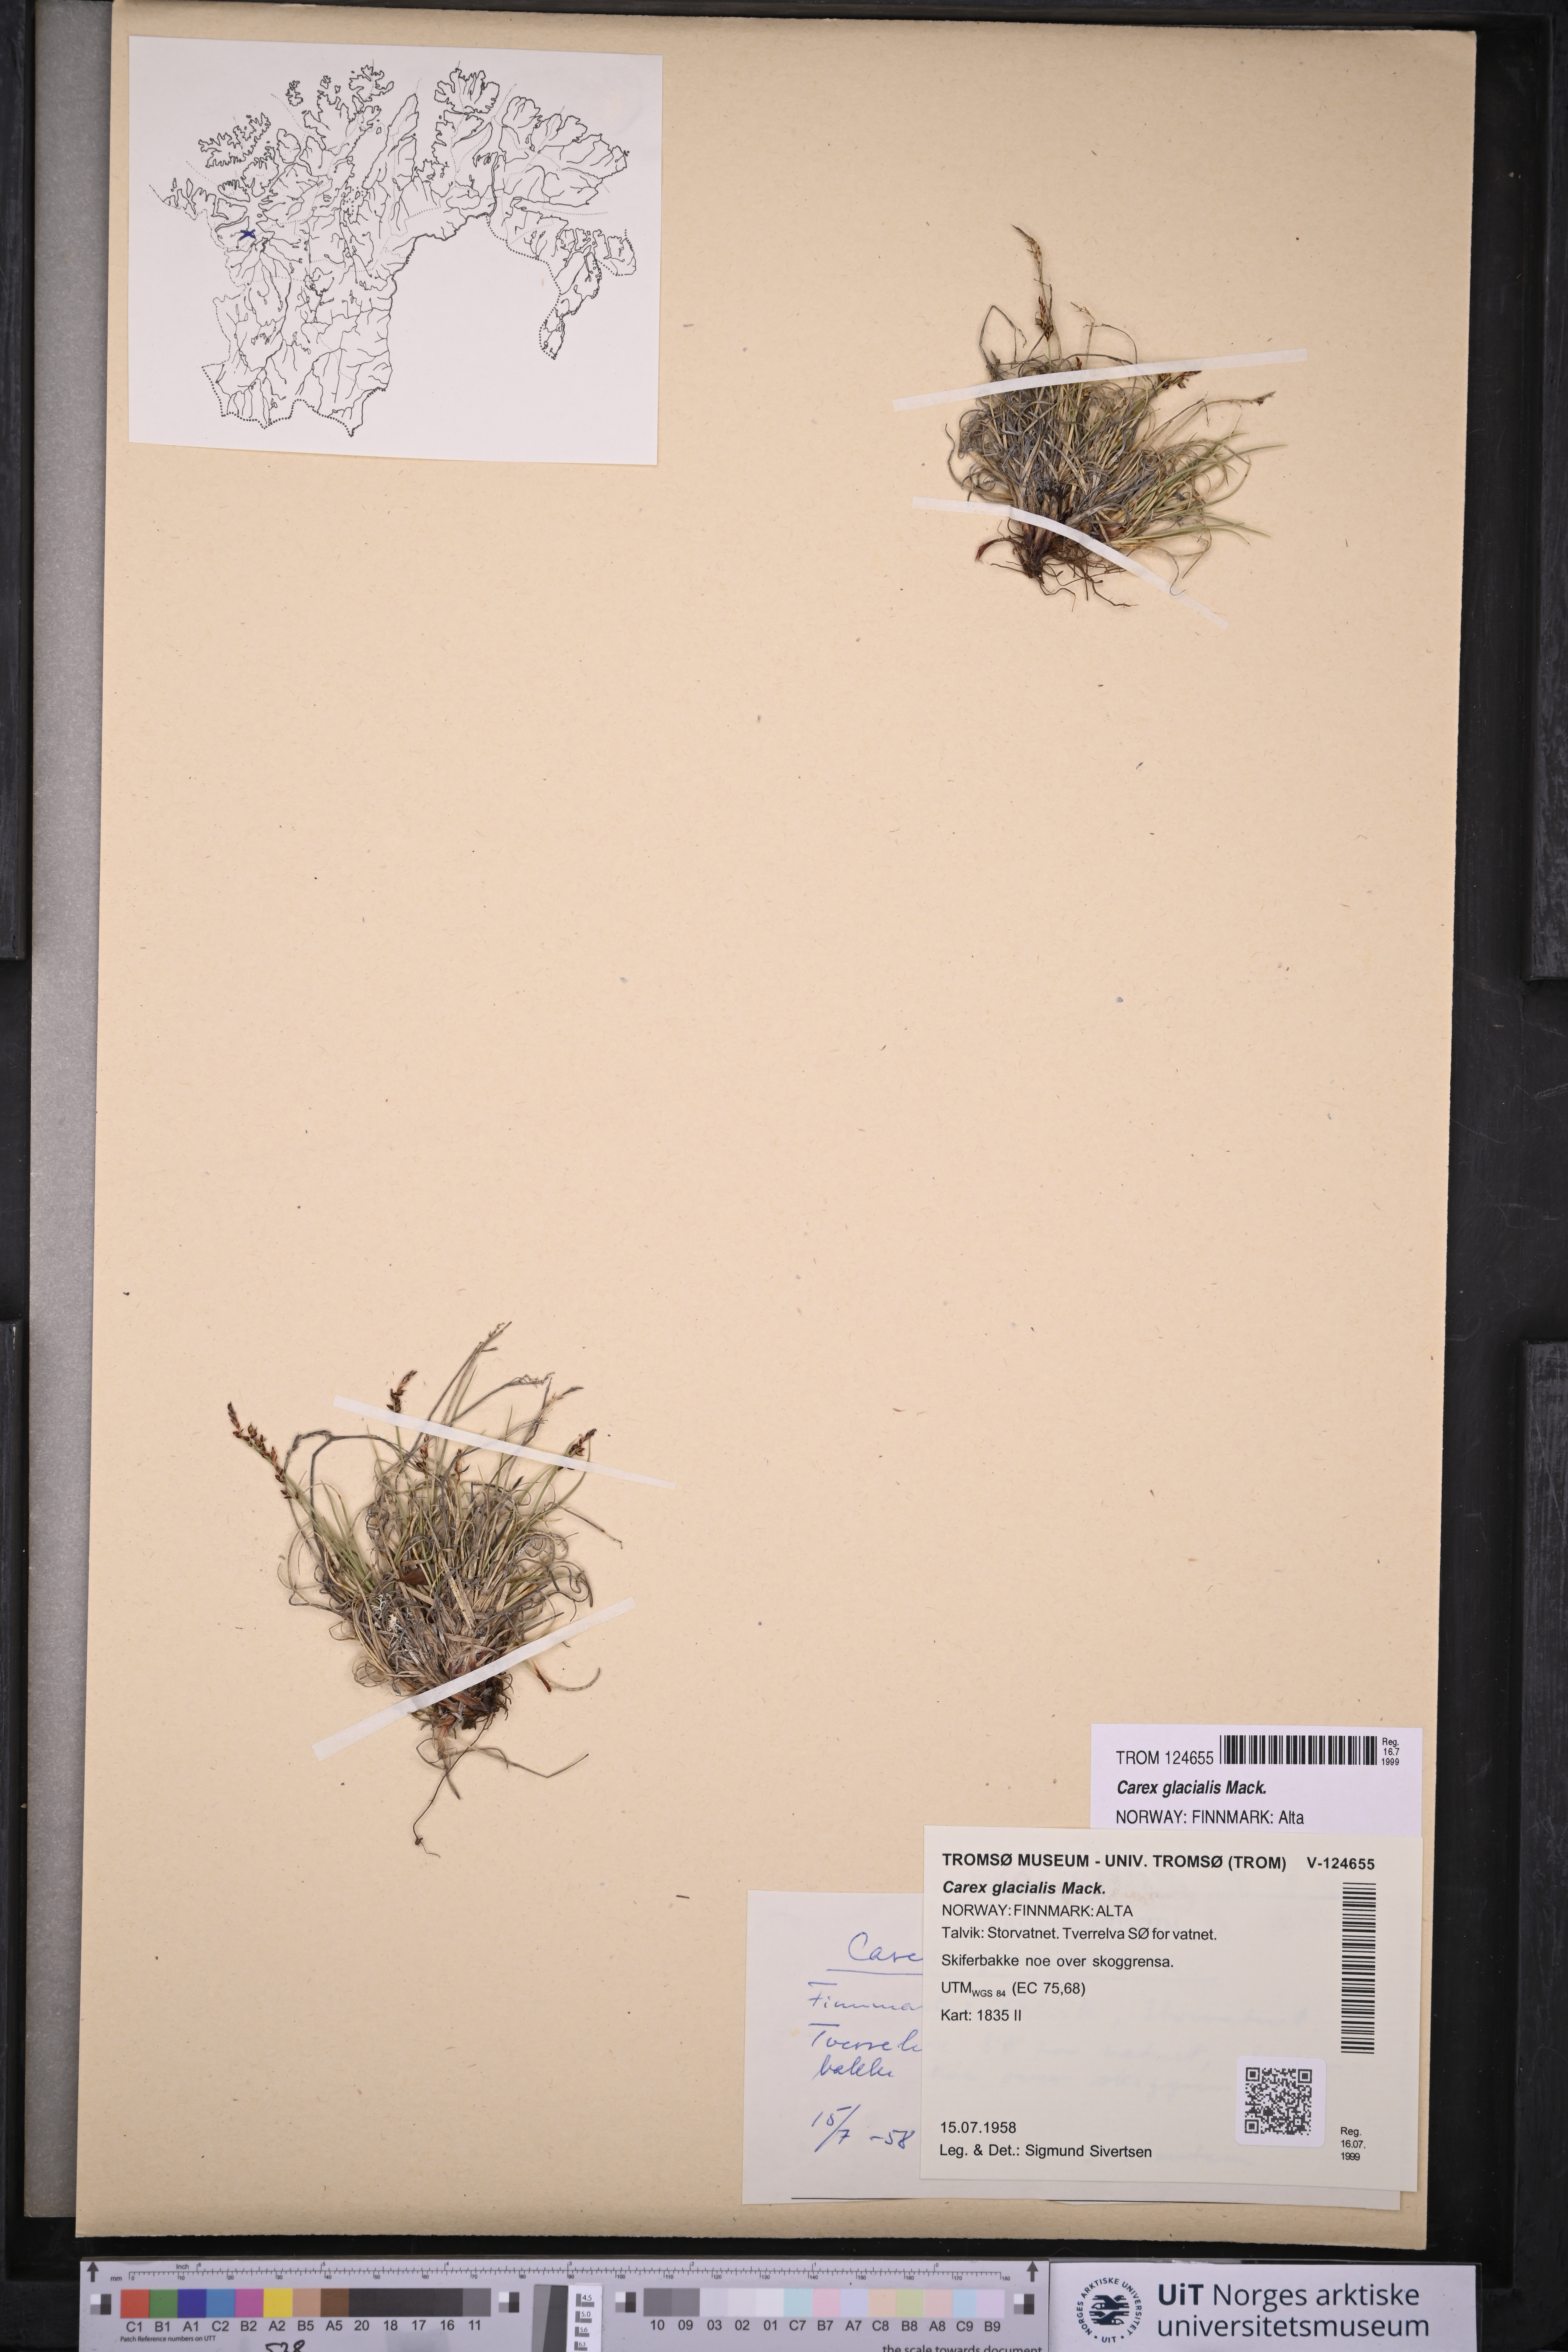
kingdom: Plantae
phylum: Tracheophyta
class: Liliopsida
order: Poales
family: Cyperaceae
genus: Carex
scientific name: Carex glacialis
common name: Newfoundland sedge
